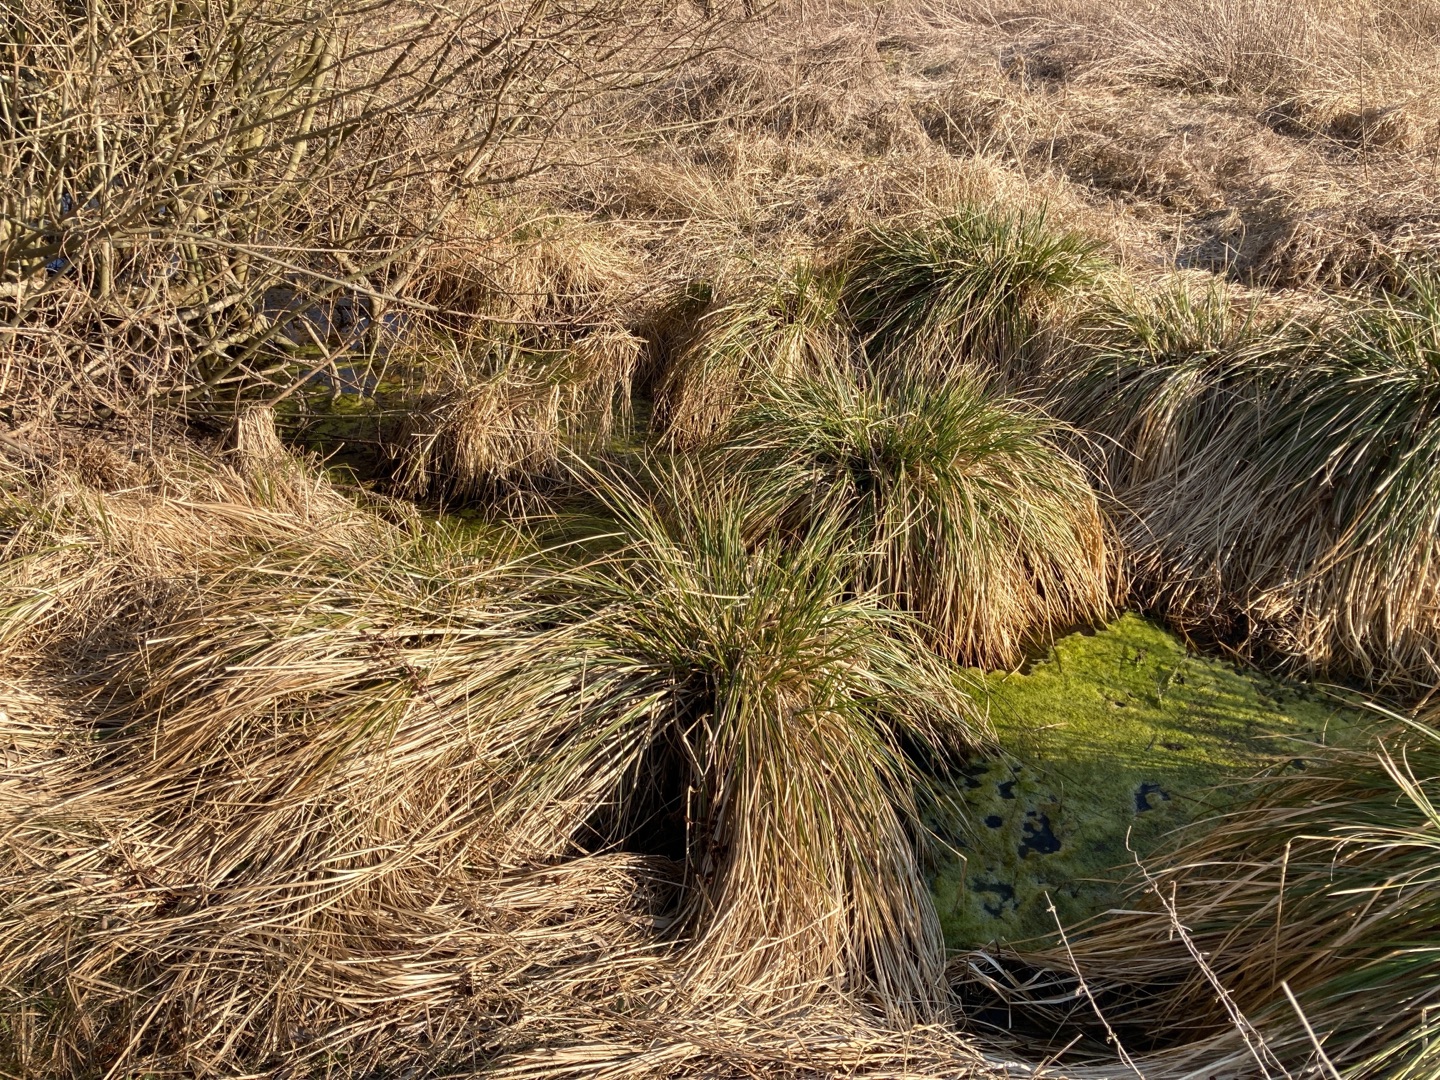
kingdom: Plantae
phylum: Tracheophyta
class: Liliopsida
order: Poales
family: Cyperaceae
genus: Carex
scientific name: Carex paniculata
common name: Top-star
